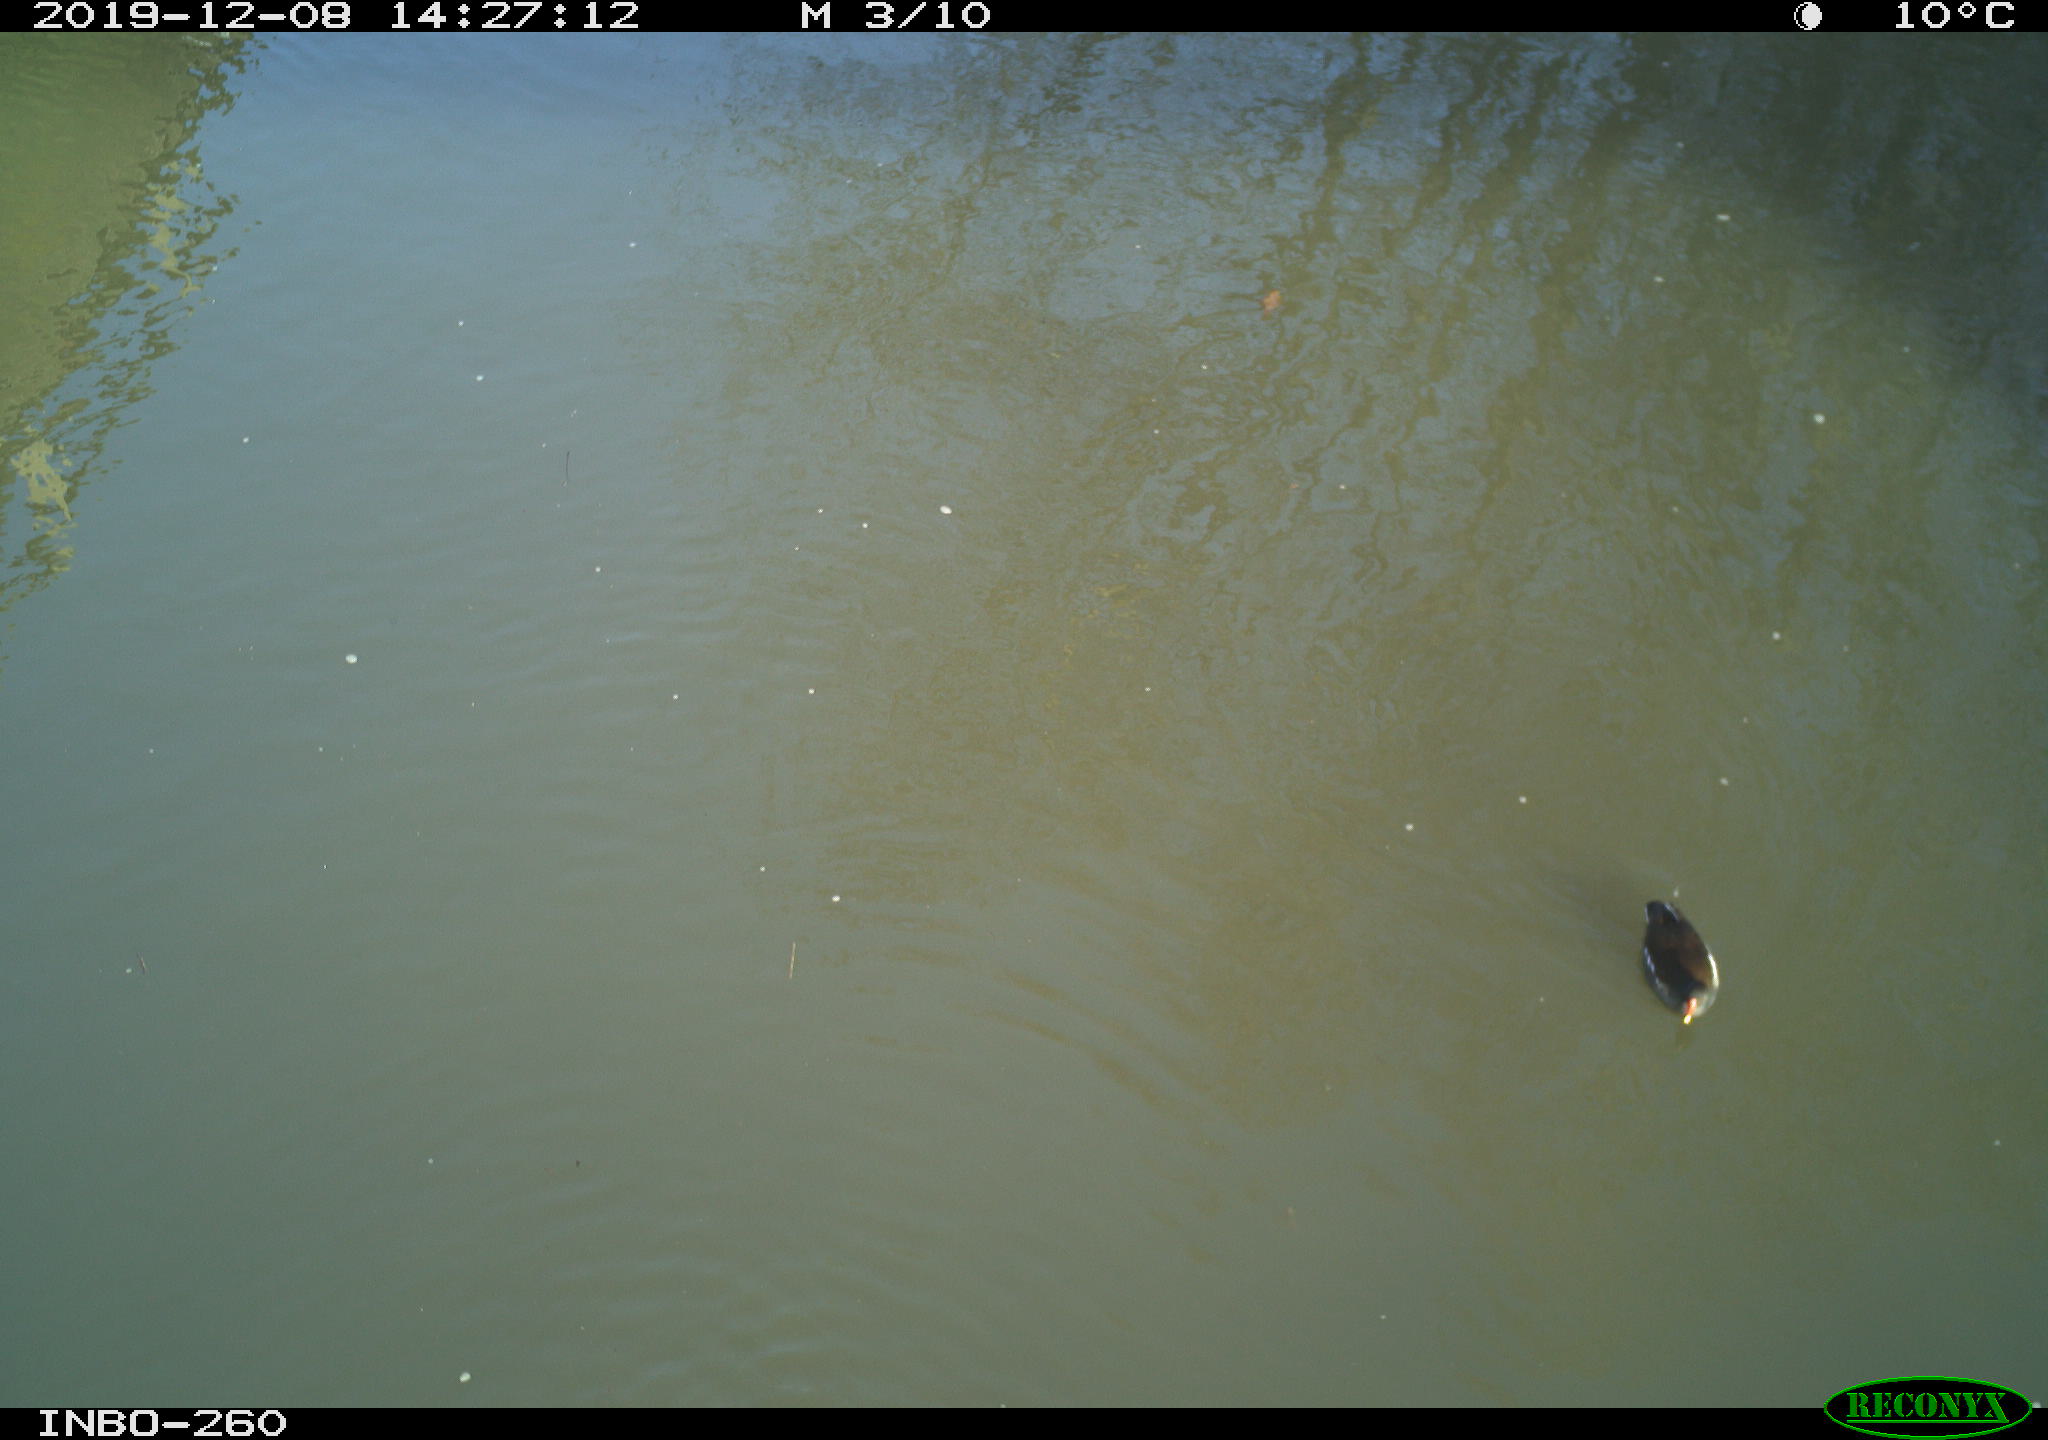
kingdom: Animalia
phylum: Chordata
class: Aves
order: Gruiformes
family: Rallidae
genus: Gallinula
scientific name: Gallinula chloropus
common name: Common moorhen
